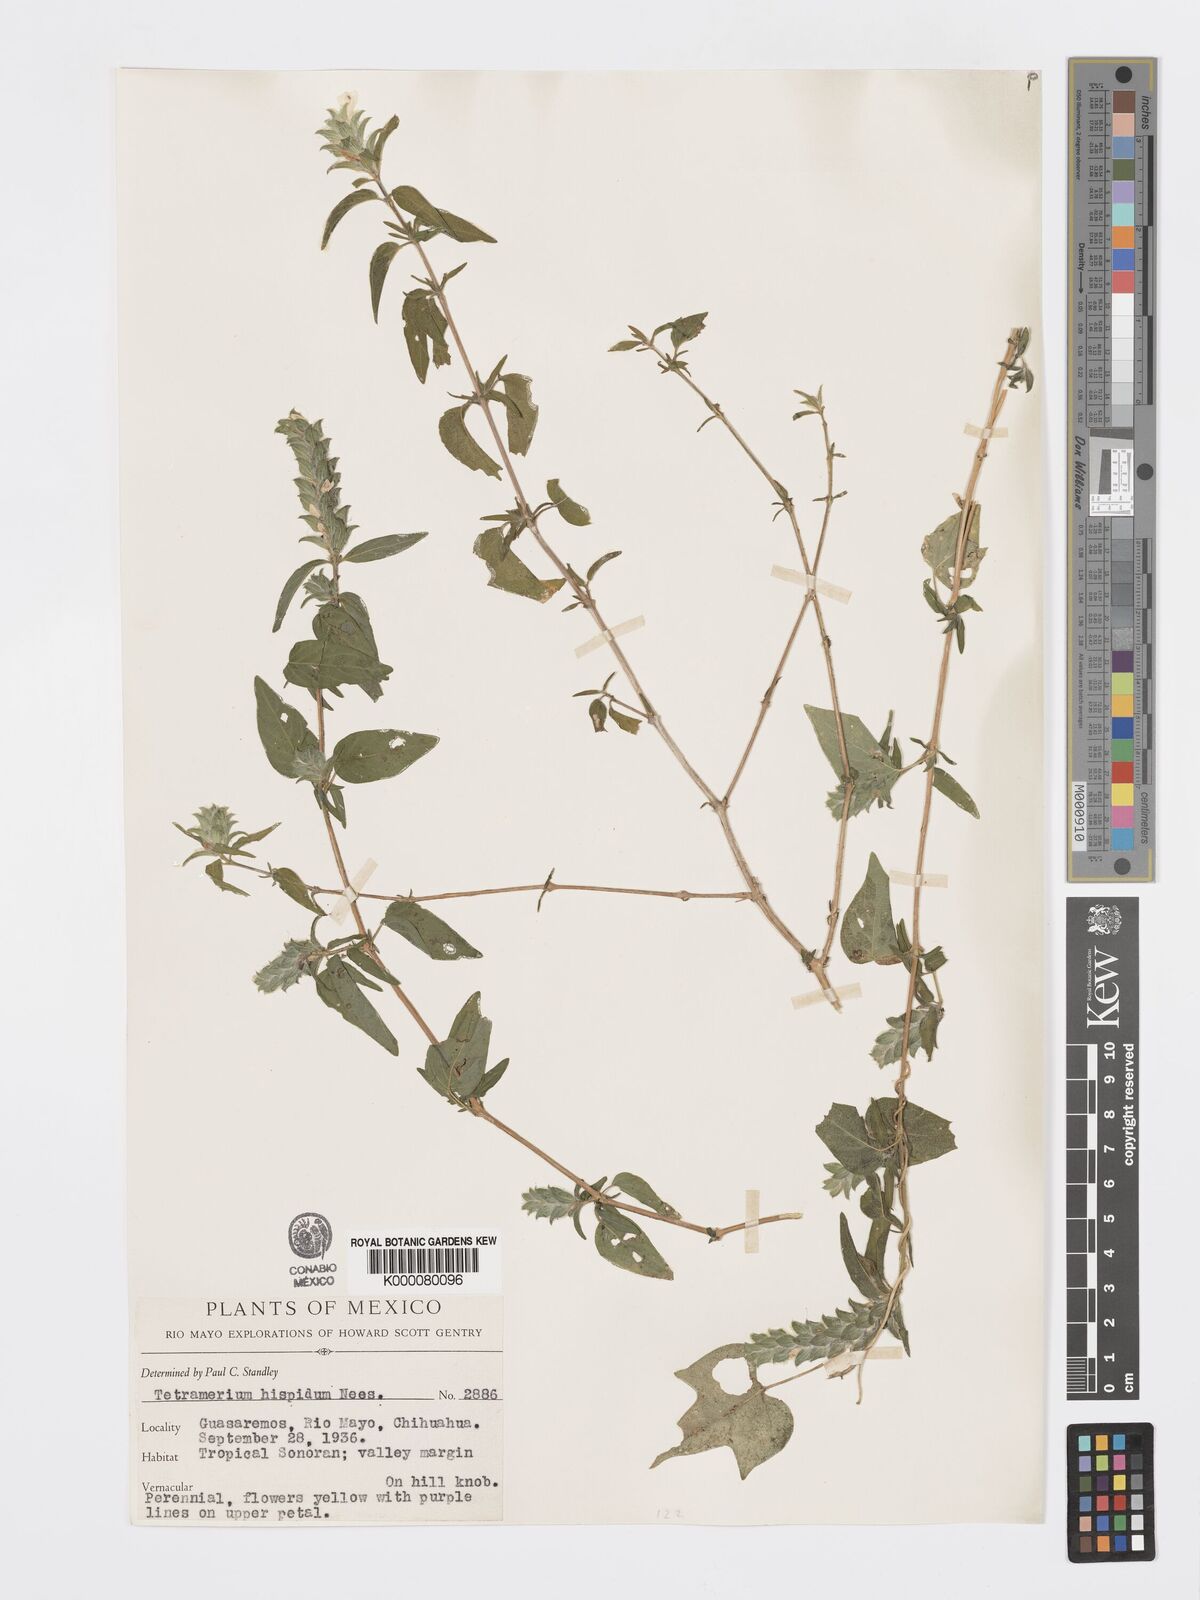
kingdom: Plantae
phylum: Tracheophyta
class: Magnoliopsida
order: Lamiales
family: Acanthaceae
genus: Tetramerium
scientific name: Tetramerium nervosum
